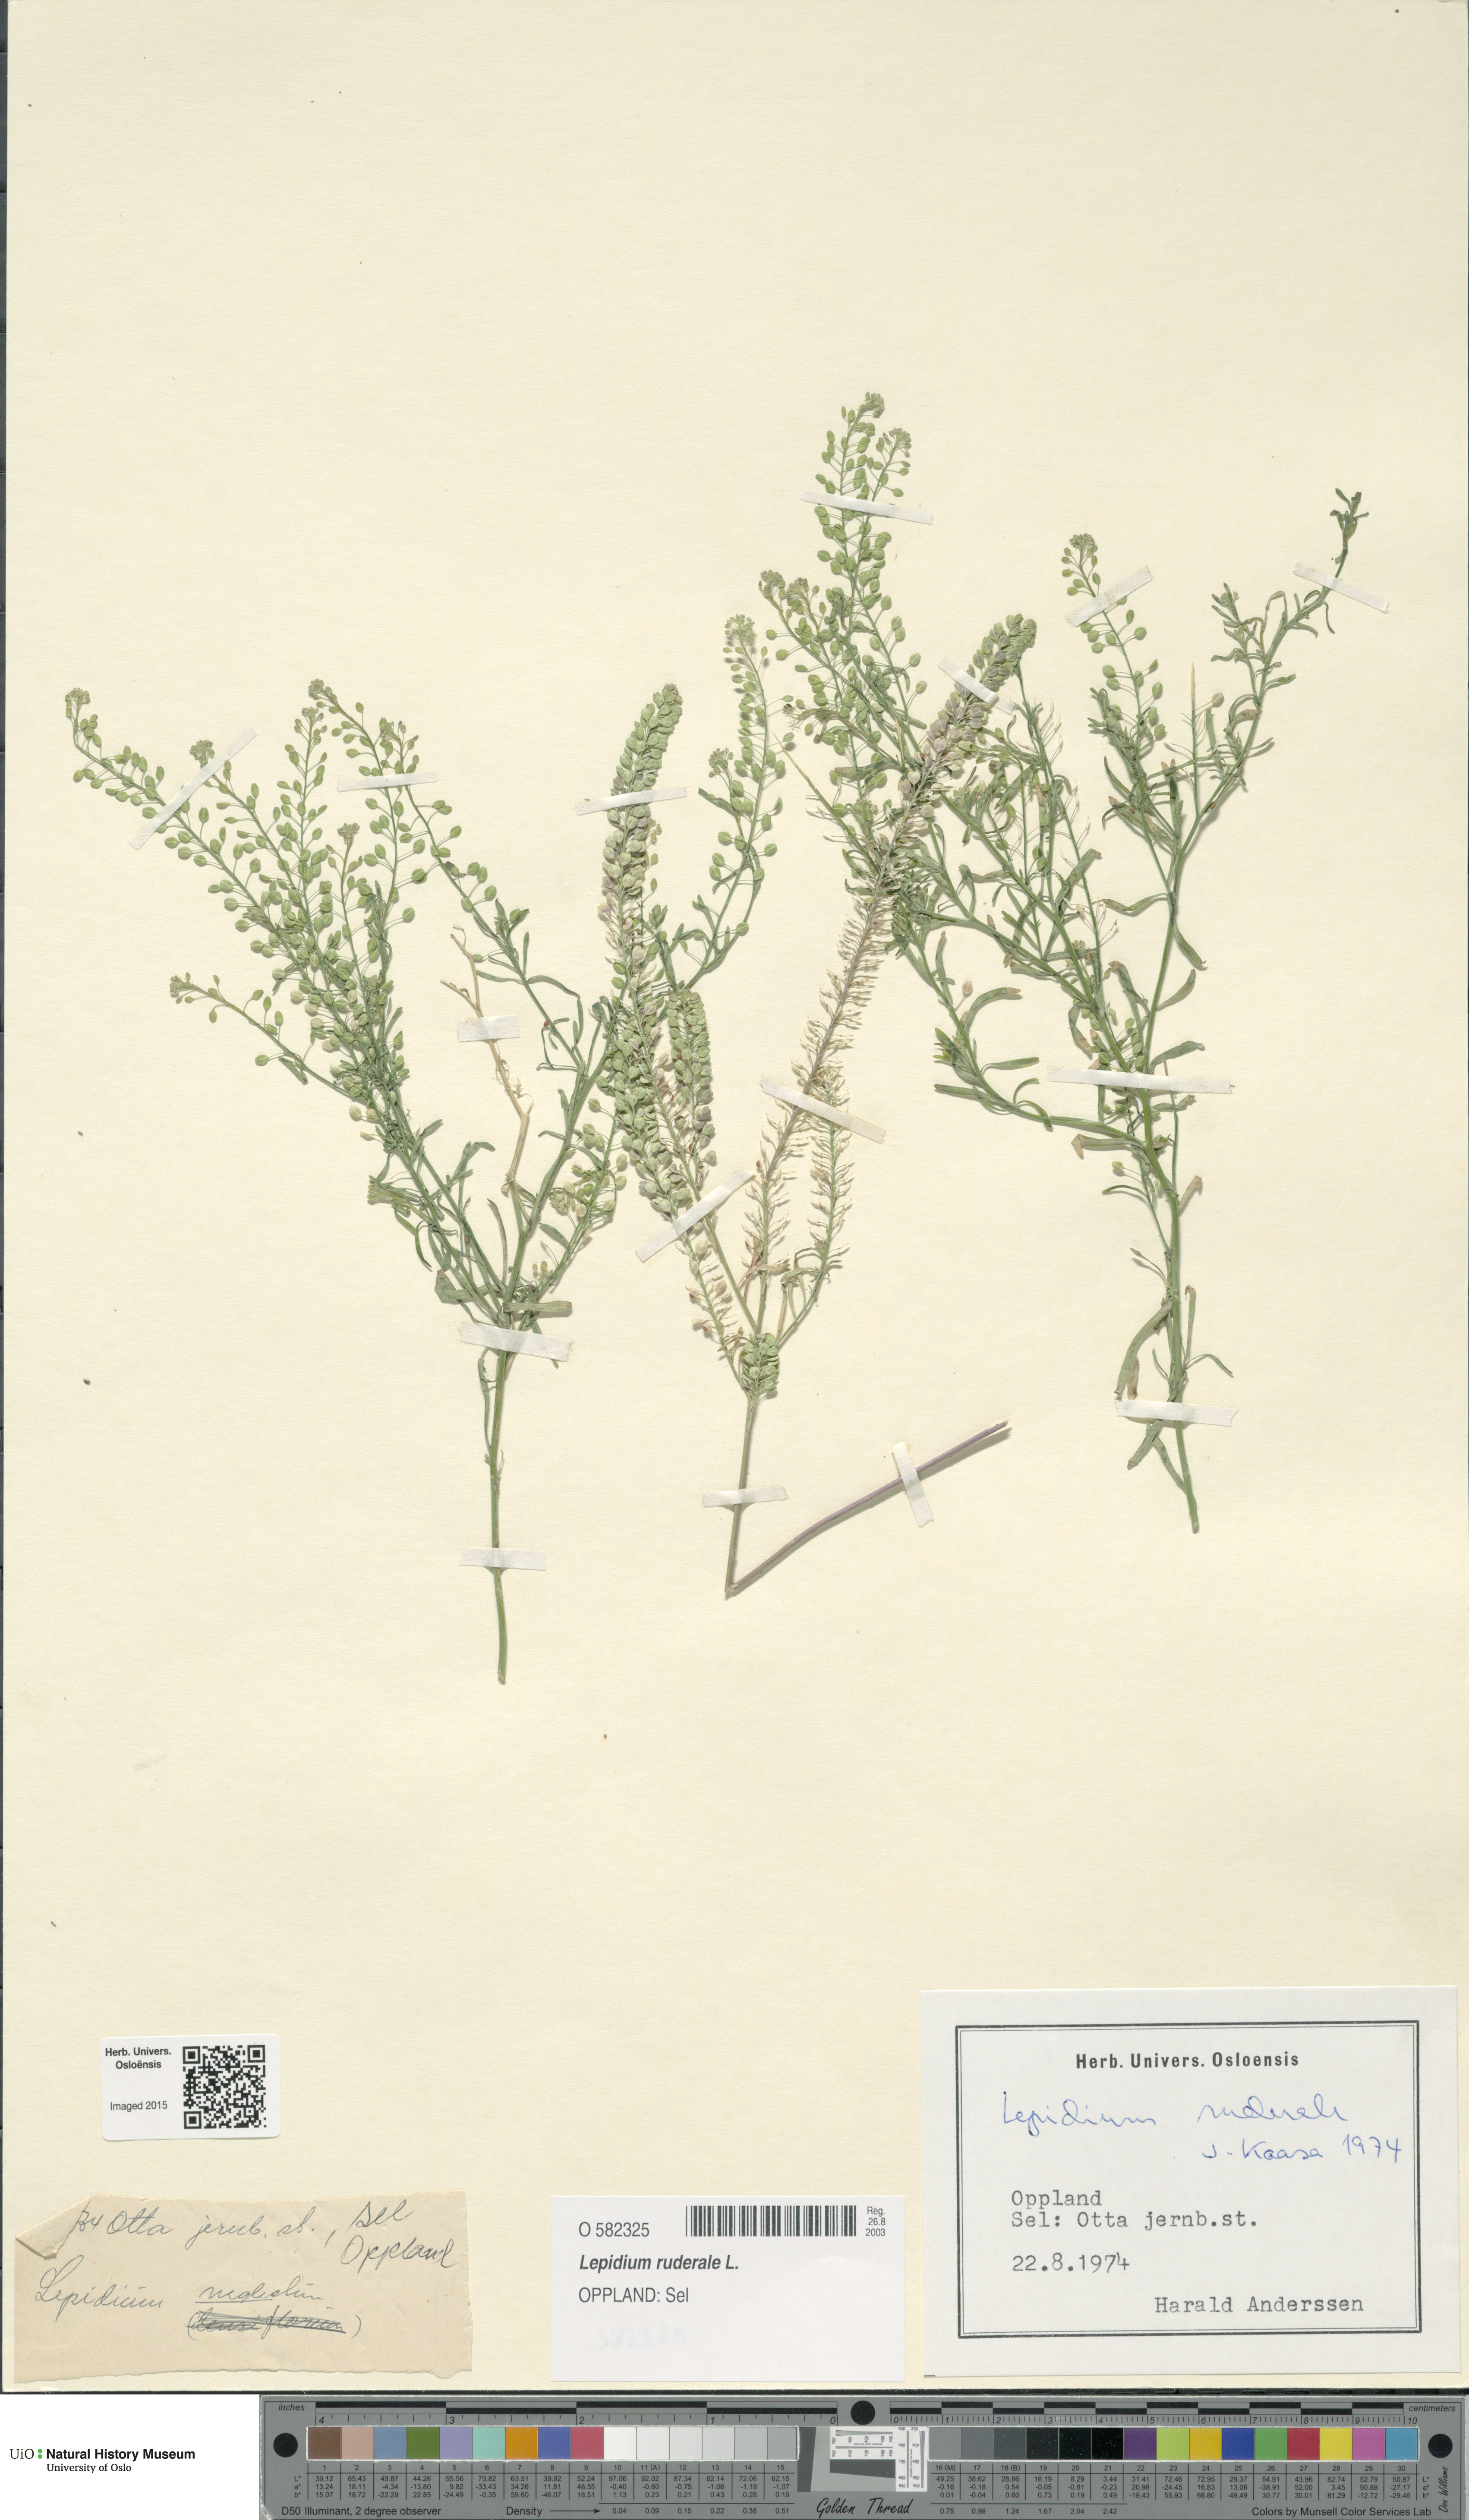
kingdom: Plantae
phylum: Tracheophyta
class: Magnoliopsida
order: Brassicales
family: Brassicaceae
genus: Lepidium
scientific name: Lepidium ruderale
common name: Narrow-leaved pepperwort
